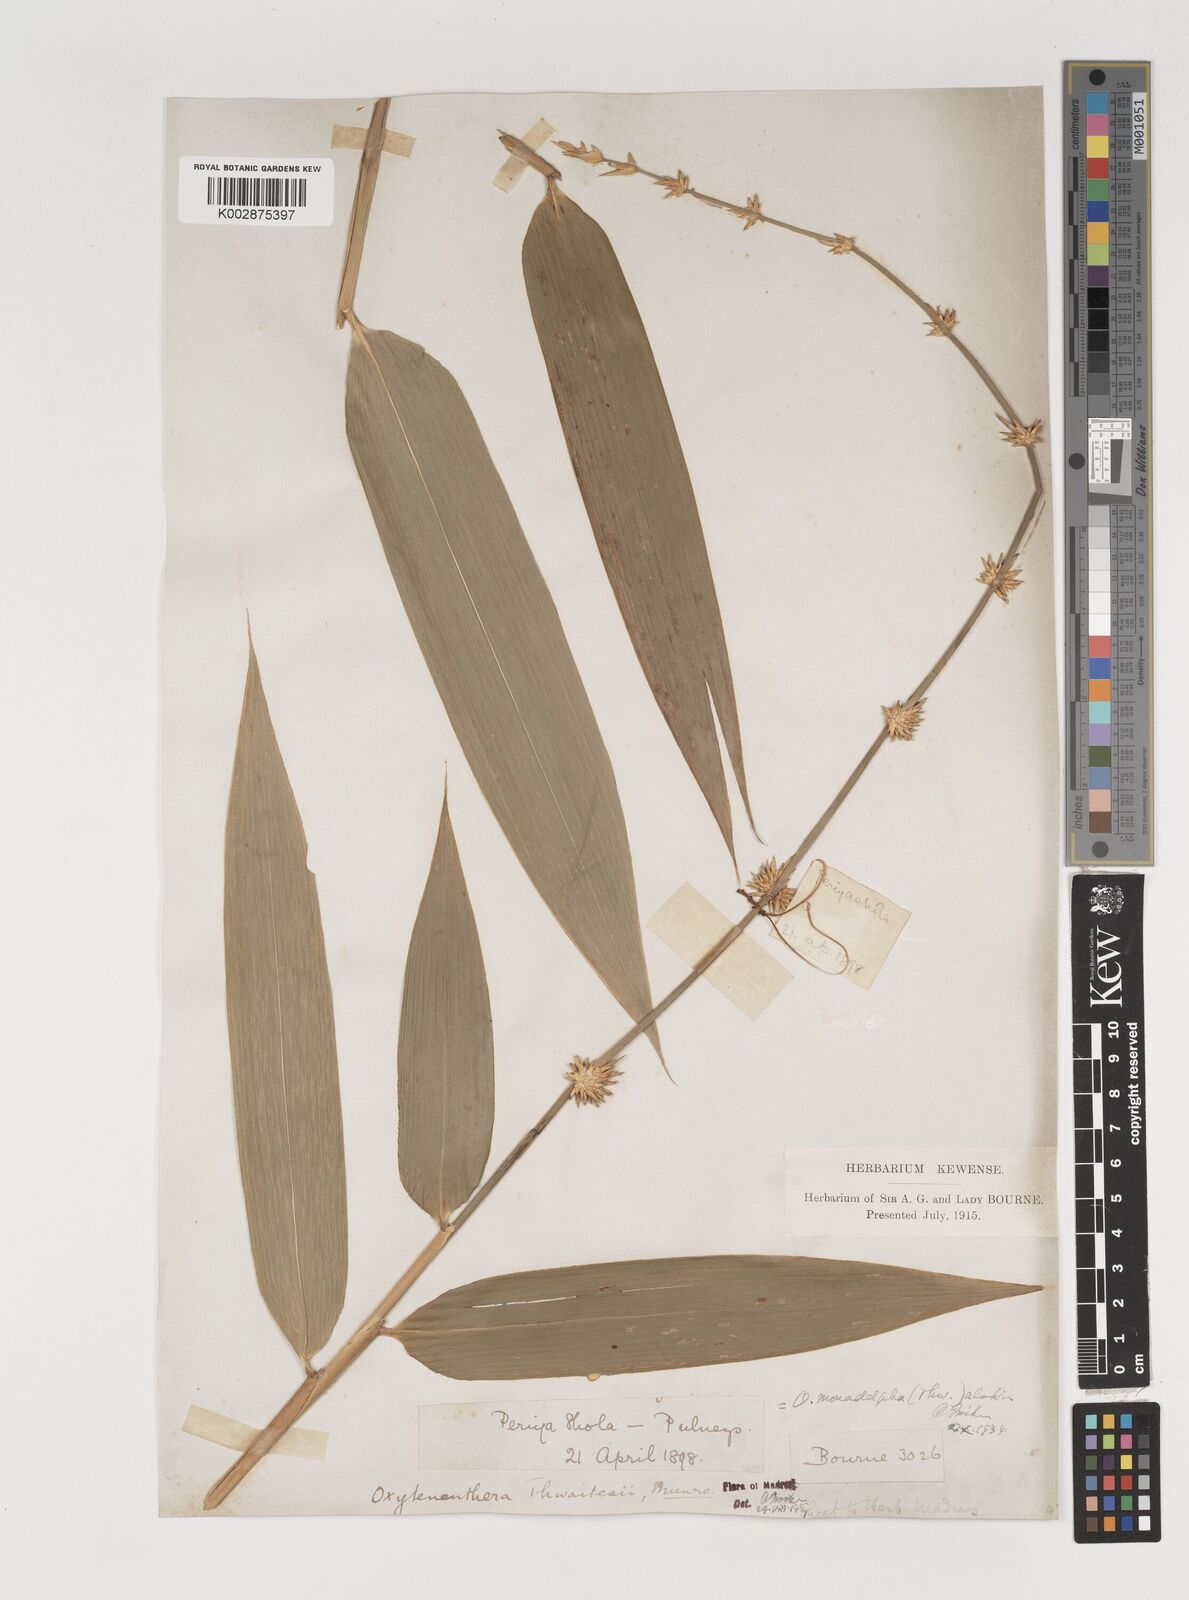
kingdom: Plantae
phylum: Tracheophyta
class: Liliopsida
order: Poales
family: Poaceae
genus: Dendrocalamus
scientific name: Dendrocalamus
